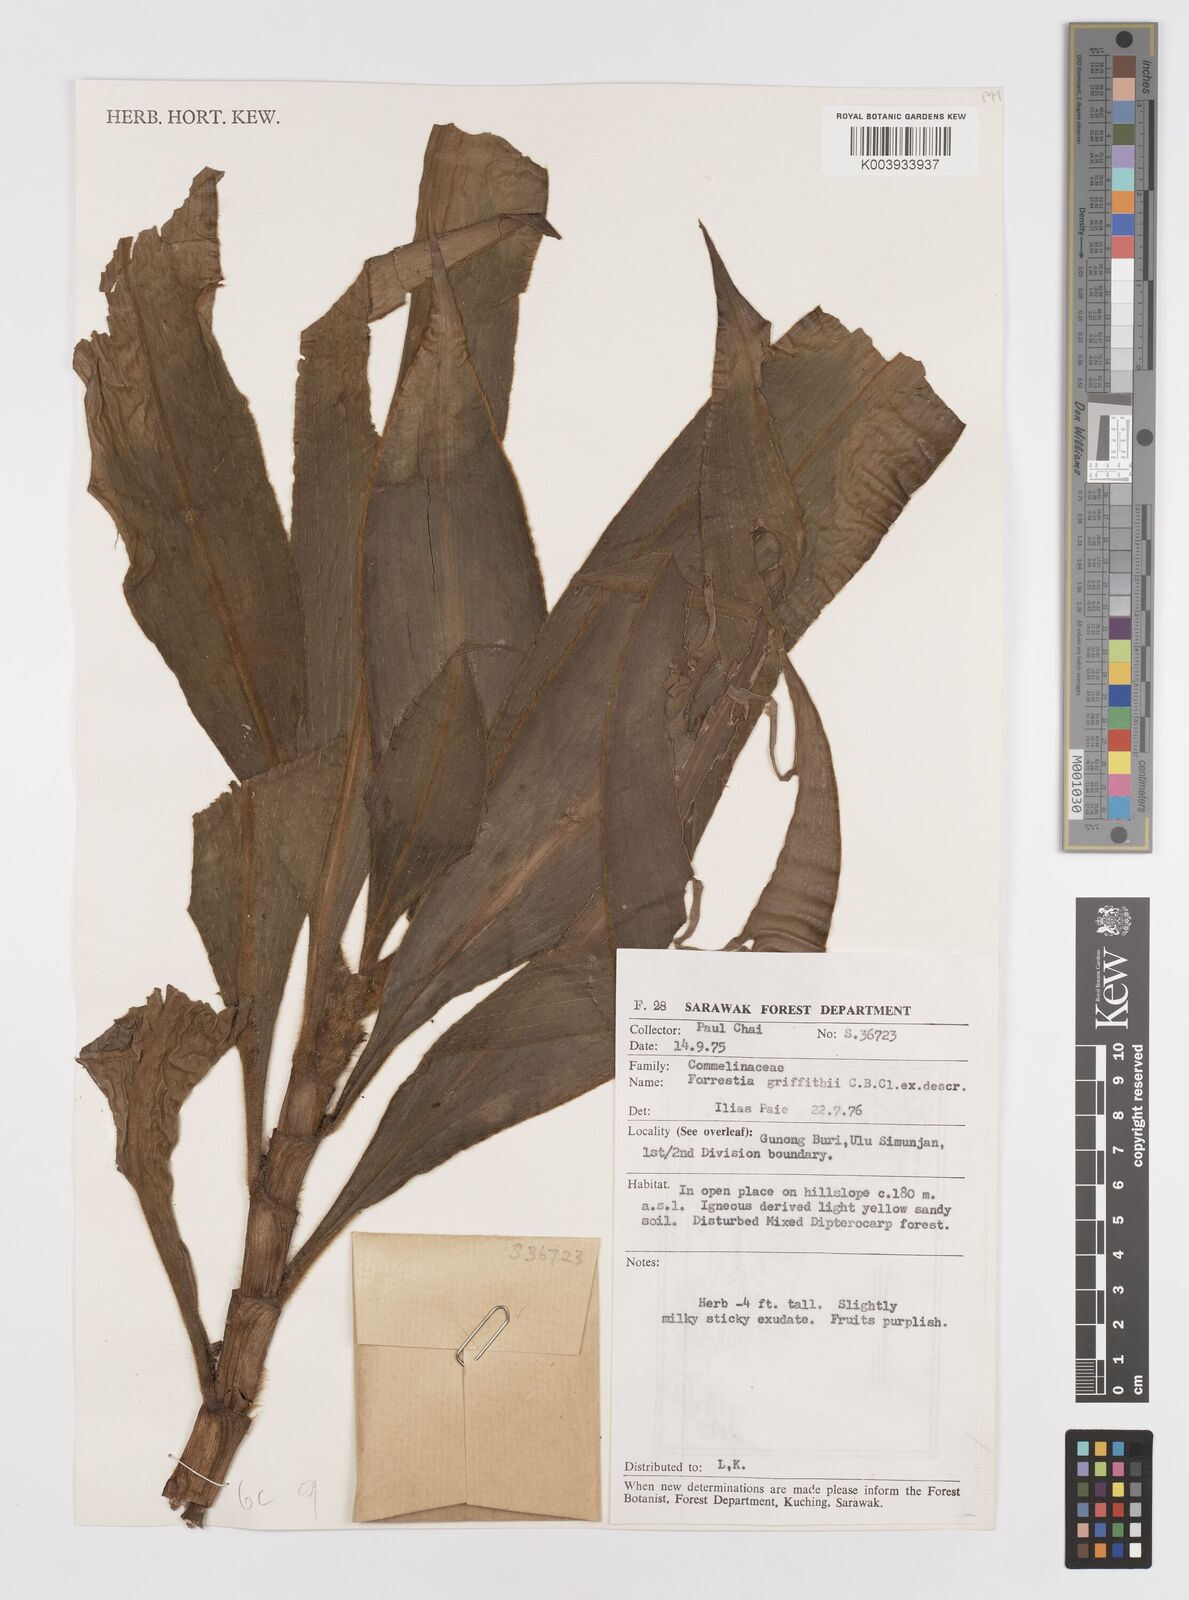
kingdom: Plantae
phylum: Tracheophyta
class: Liliopsida
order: Commelinales
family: Commelinaceae
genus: Amischotolype
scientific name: Amischotolype griffithii
